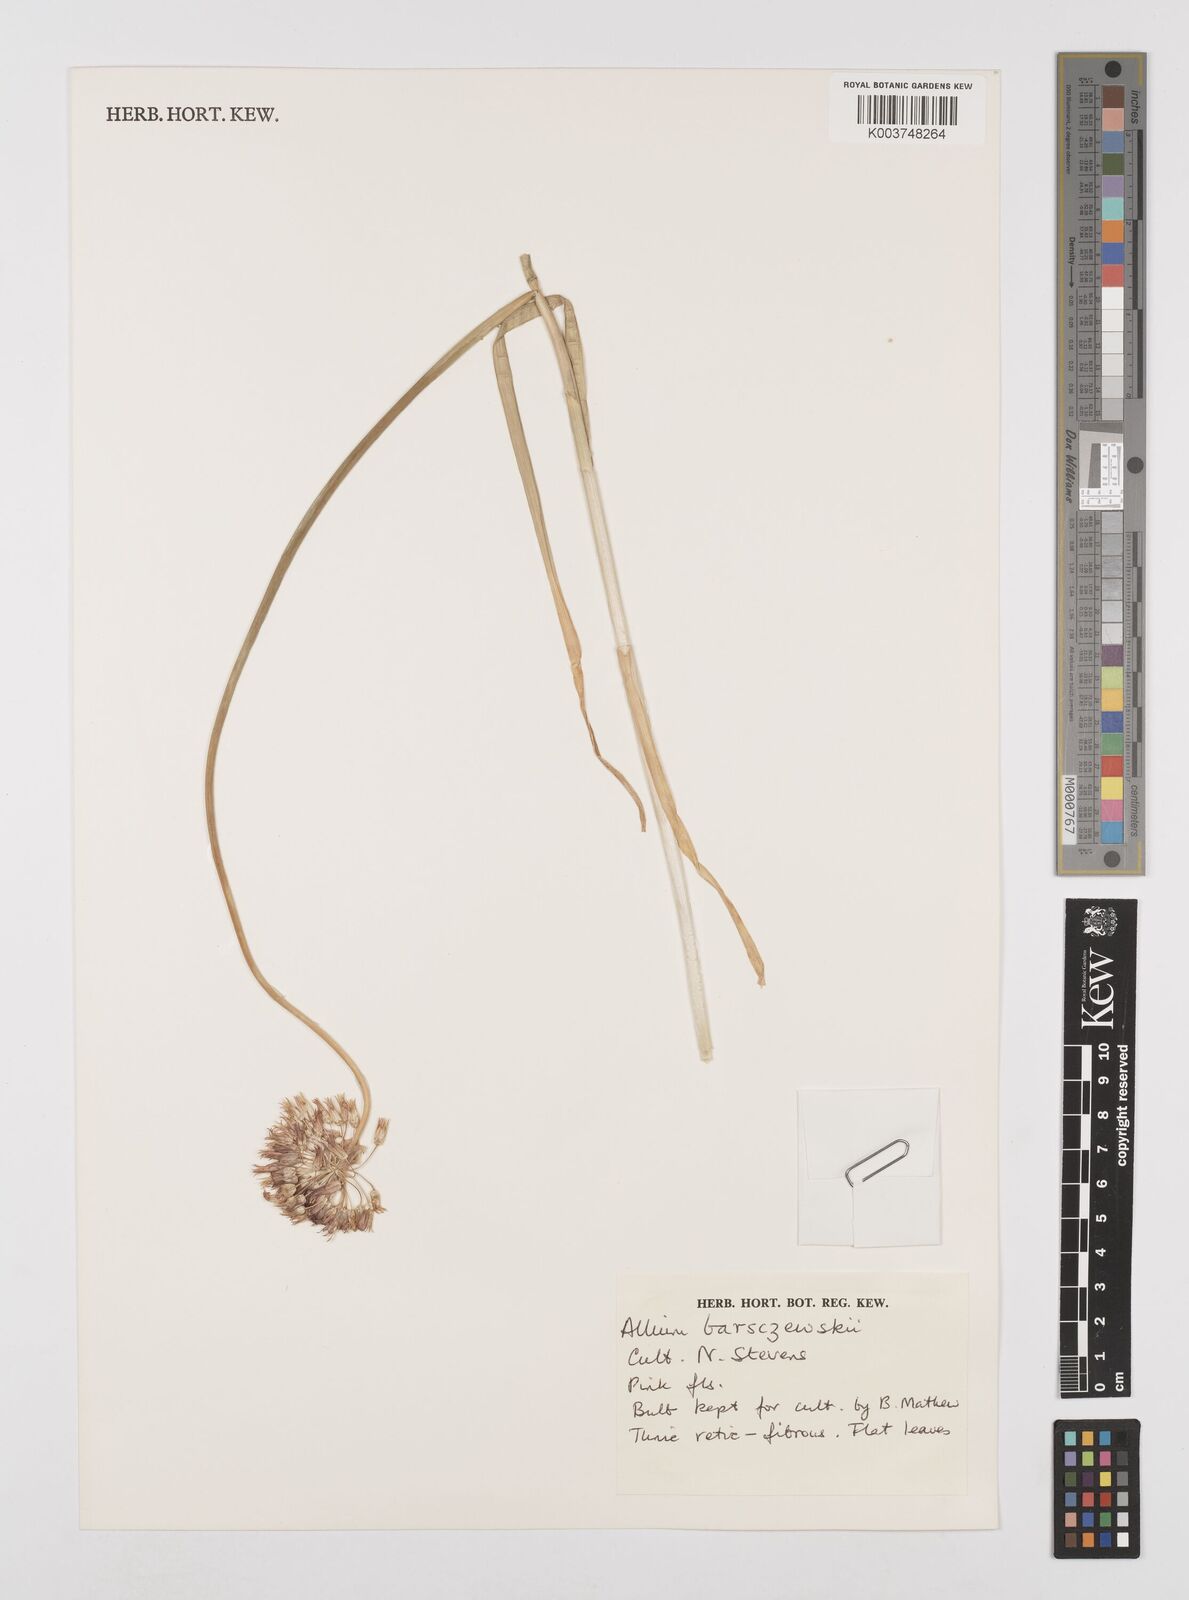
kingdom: Plantae
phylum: Tracheophyta
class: Liliopsida
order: Asparagales
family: Amaryllidaceae
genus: Allium
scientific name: Allium barsczewskii
